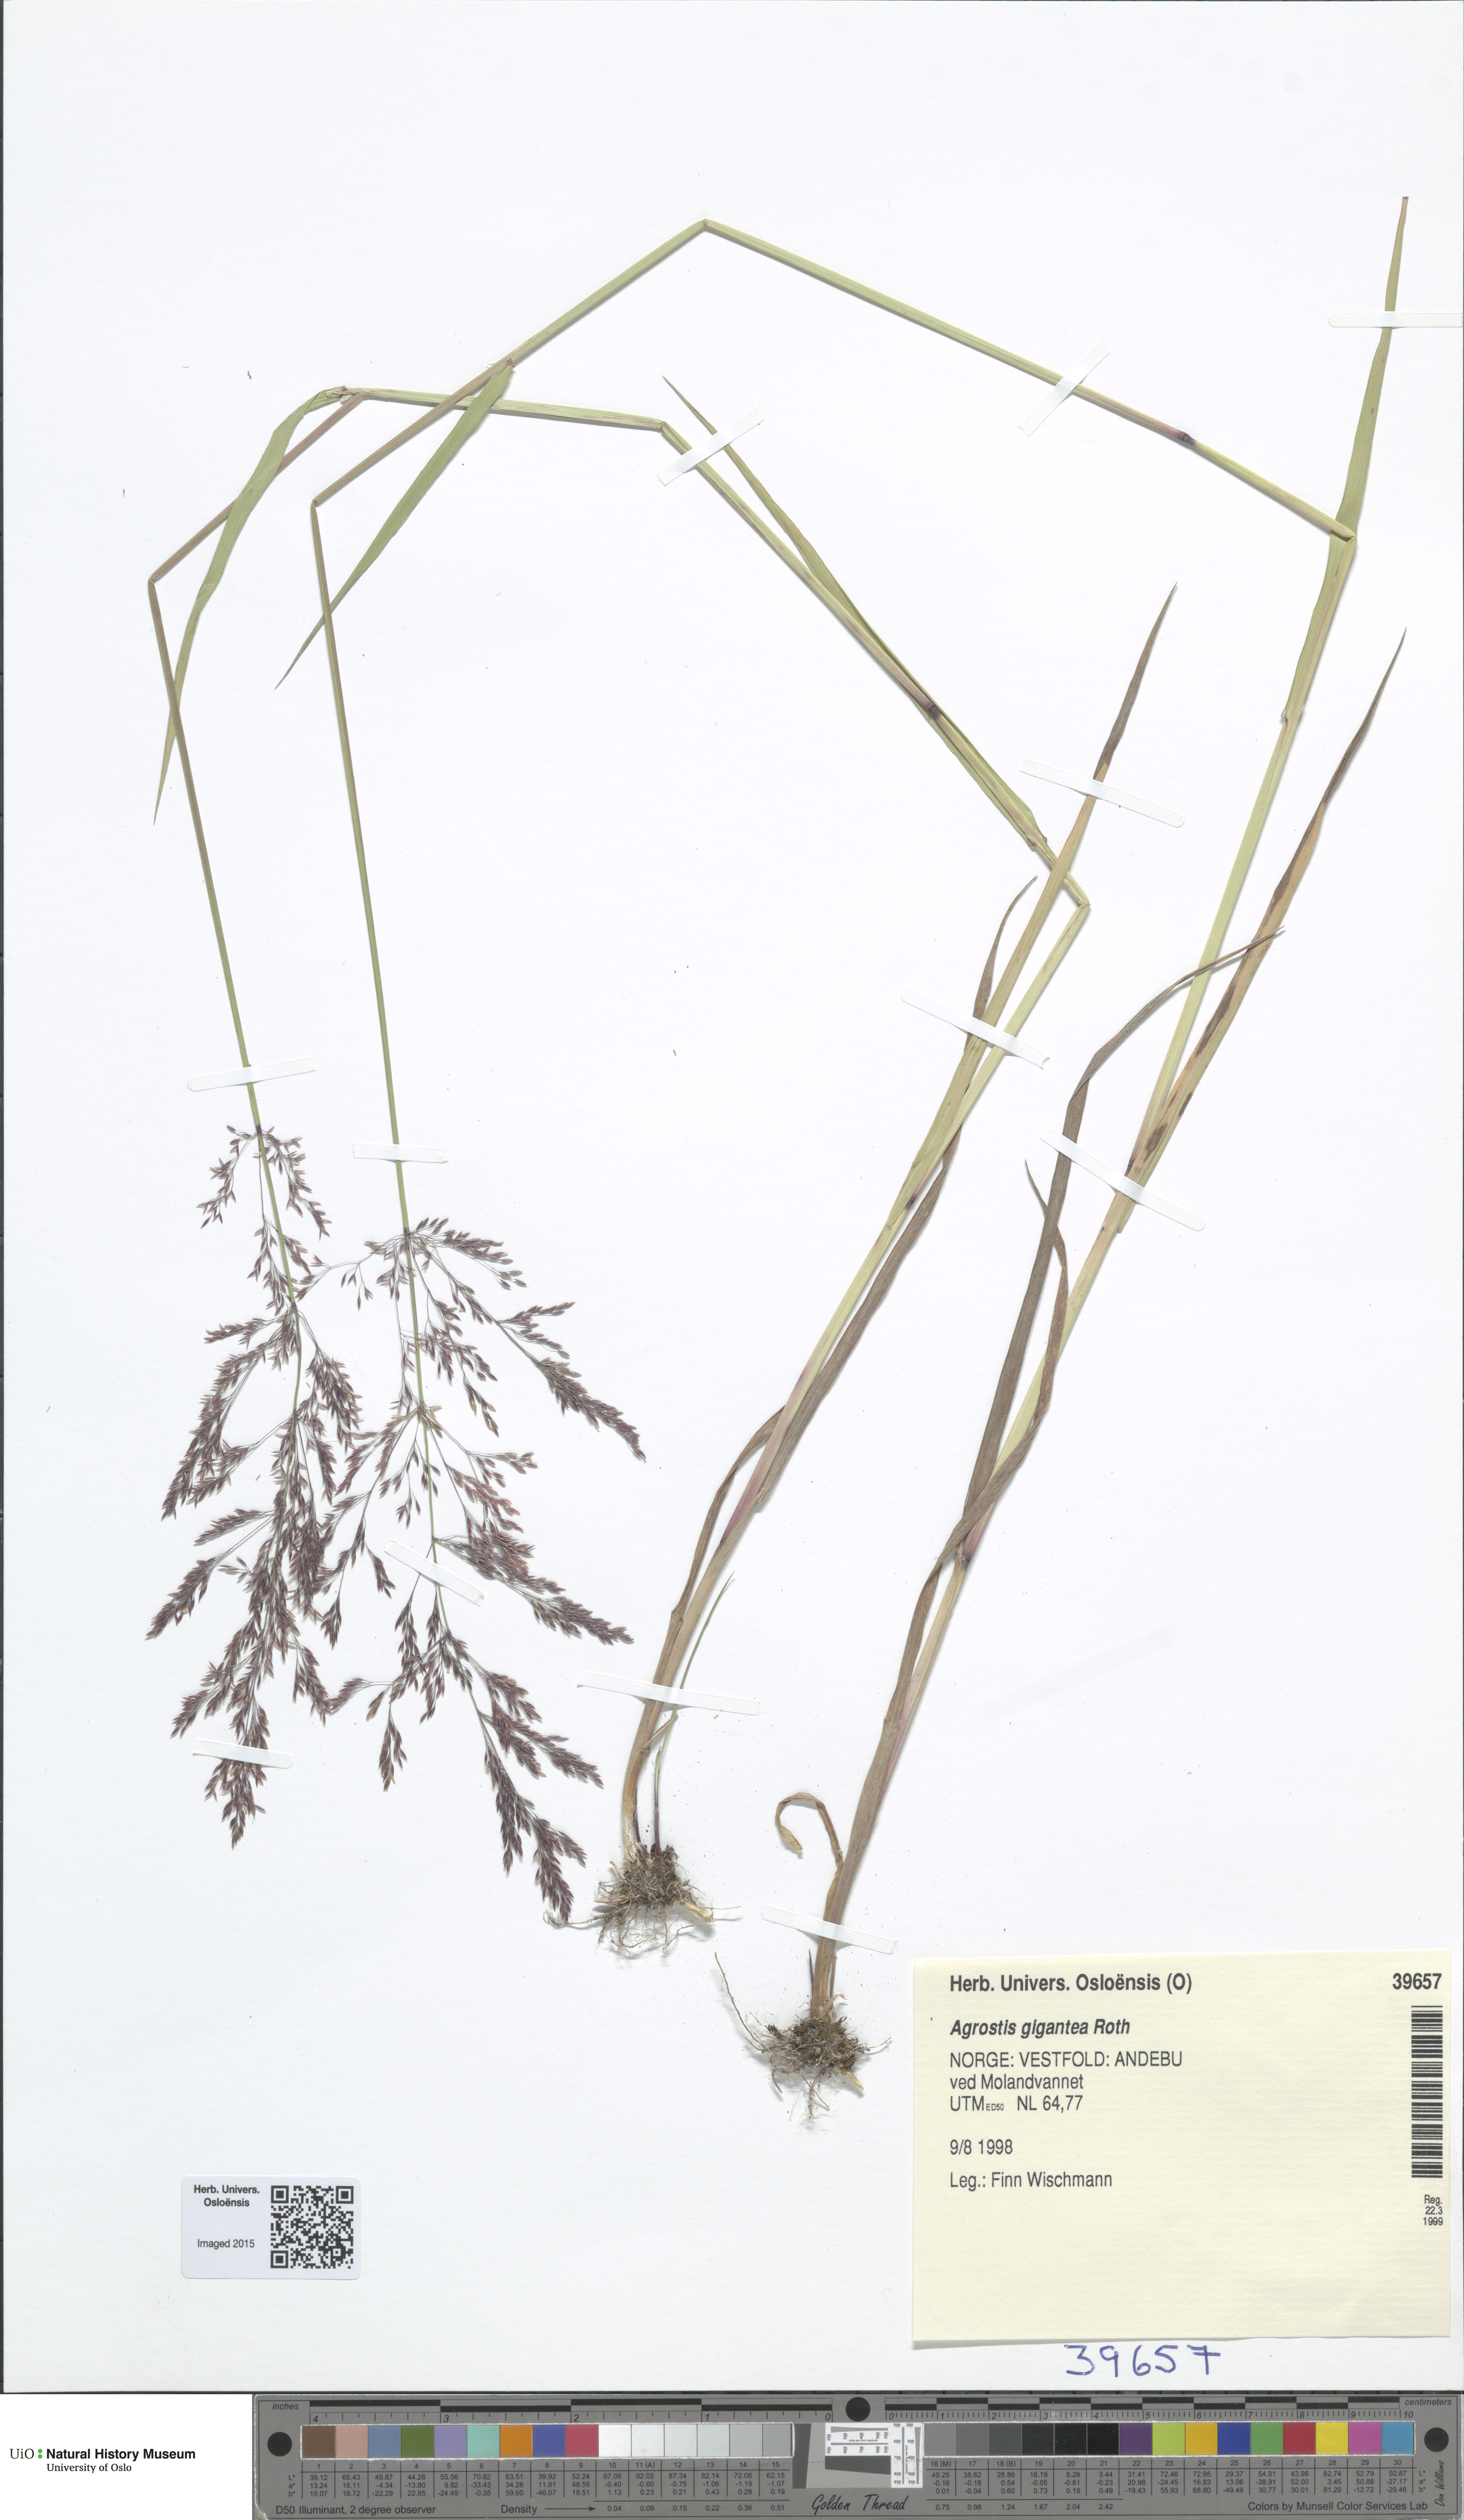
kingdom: Plantae
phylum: Tracheophyta
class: Liliopsida
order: Poales
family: Poaceae
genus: Agrostis
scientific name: Agrostis gigantea
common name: Black bent
